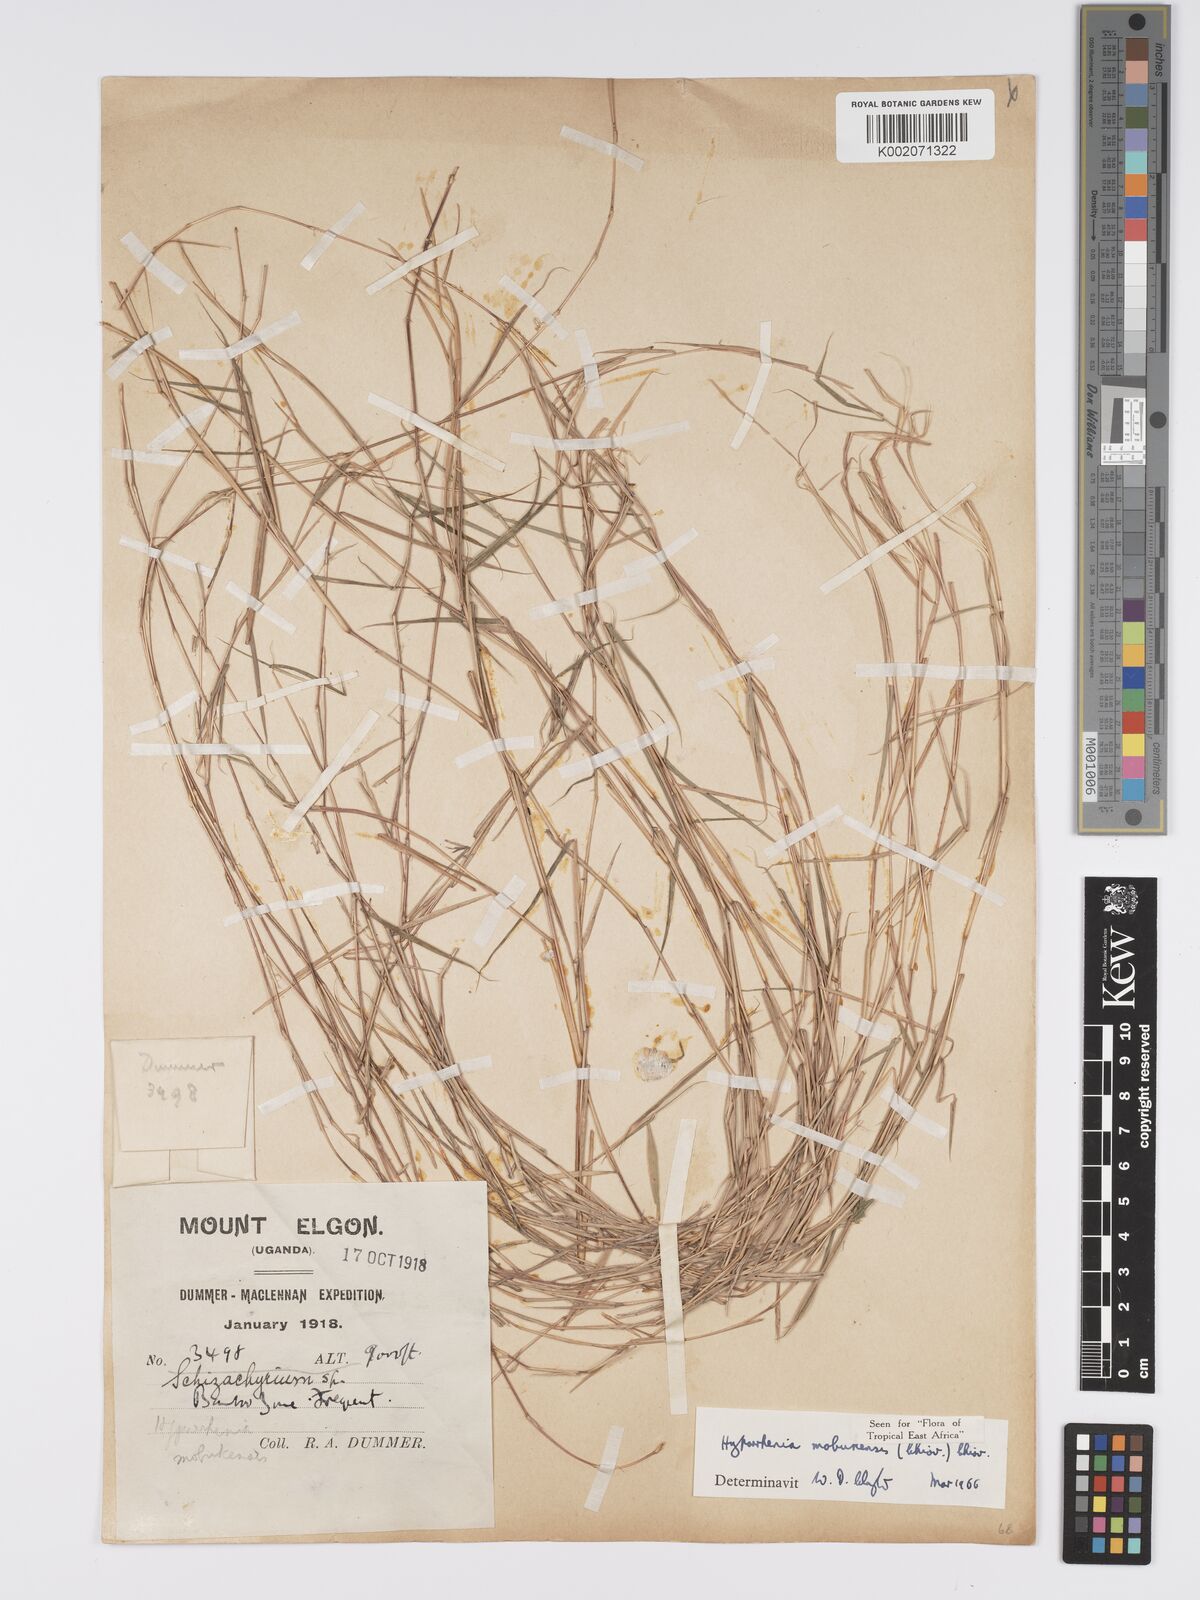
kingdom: Plantae
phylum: Tracheophyta
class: Liliopsida
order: Poales
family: Poaceae
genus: Hyparrhenia
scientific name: Hyparrhenia mobukensis
